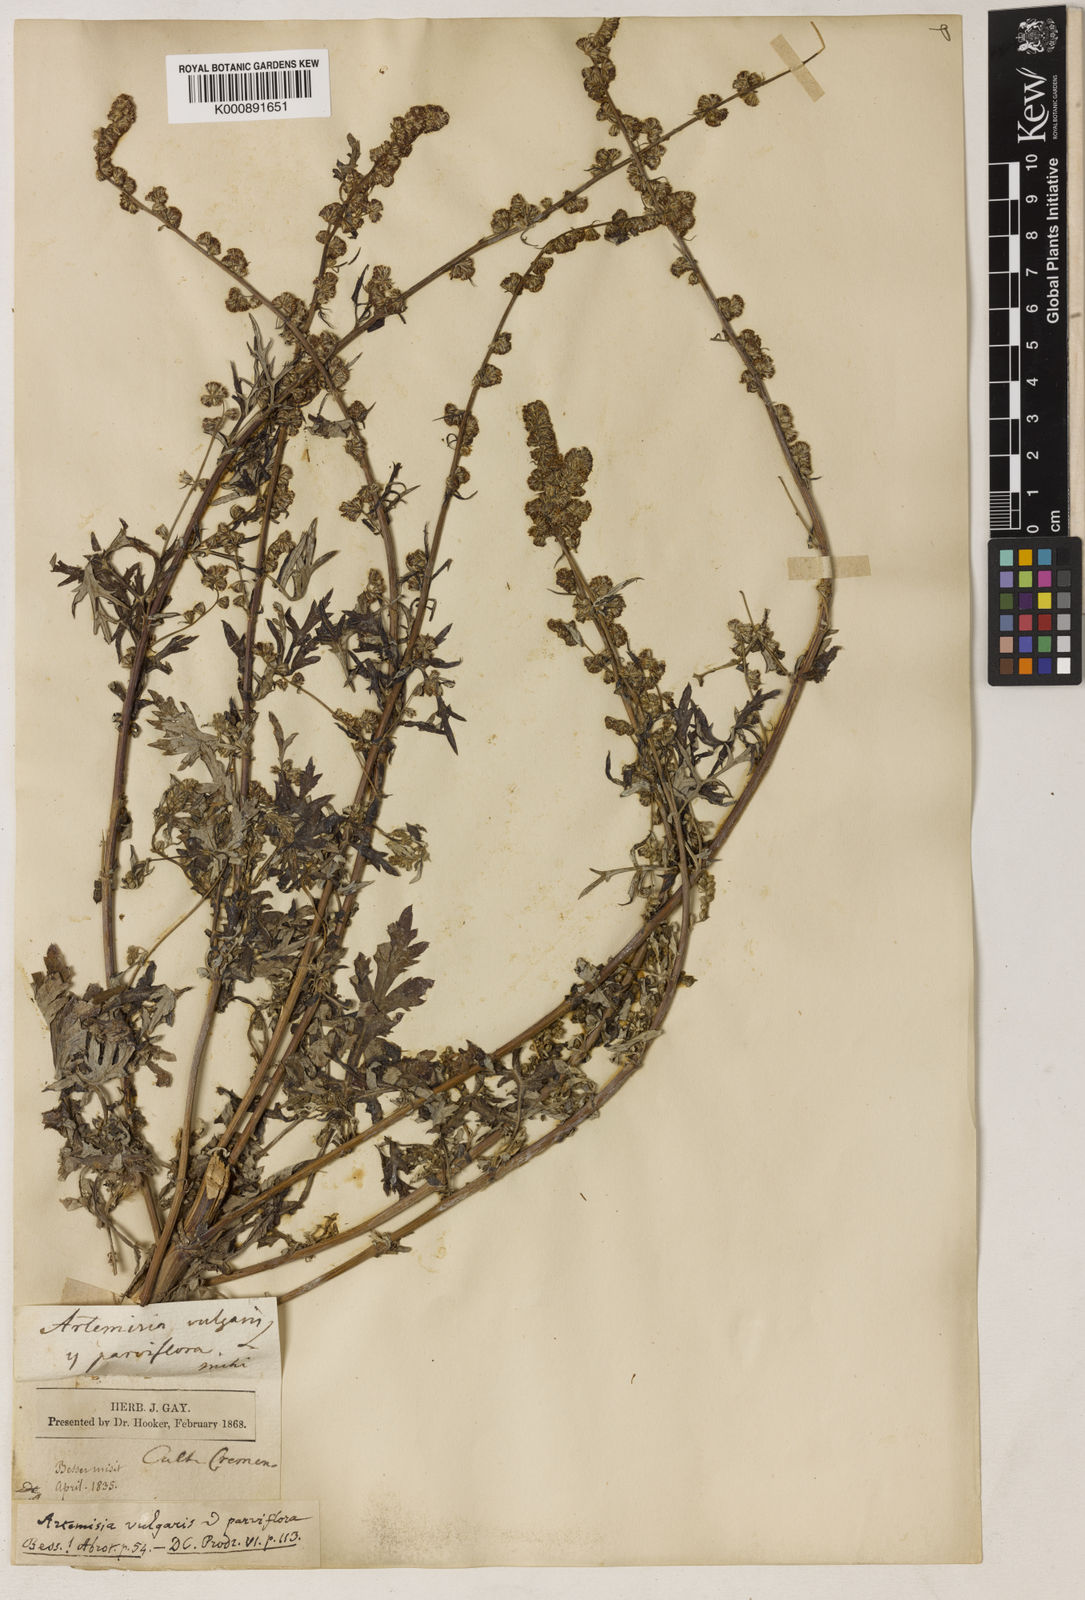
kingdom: Plantae
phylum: Tracheophyta
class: Magnoliopsida
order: Asterales
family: Asteraceae
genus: Artemisia
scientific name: Artemisia vulgaris
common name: Mugwort
